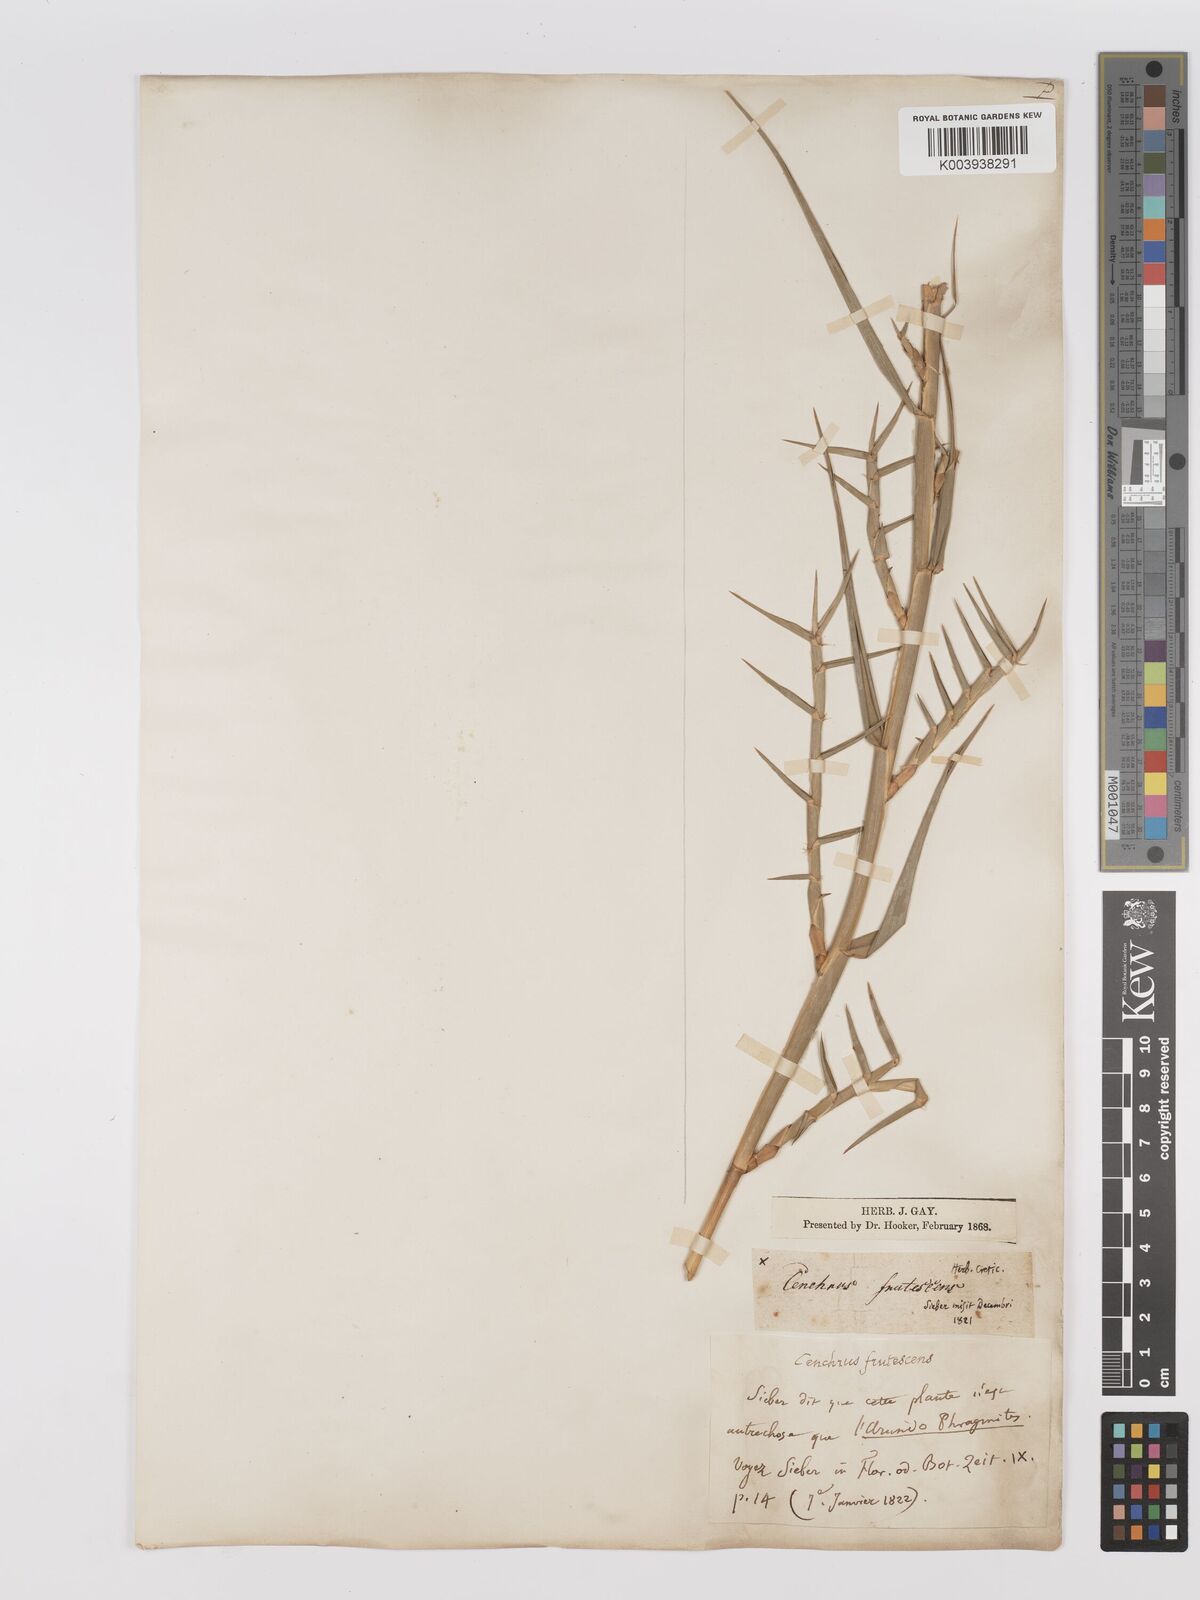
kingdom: Plantae
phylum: Tracheophyta
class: Liliopsida
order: Poales
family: Poaceae
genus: Phragmites
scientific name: Phragmites australis
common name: Common reed
